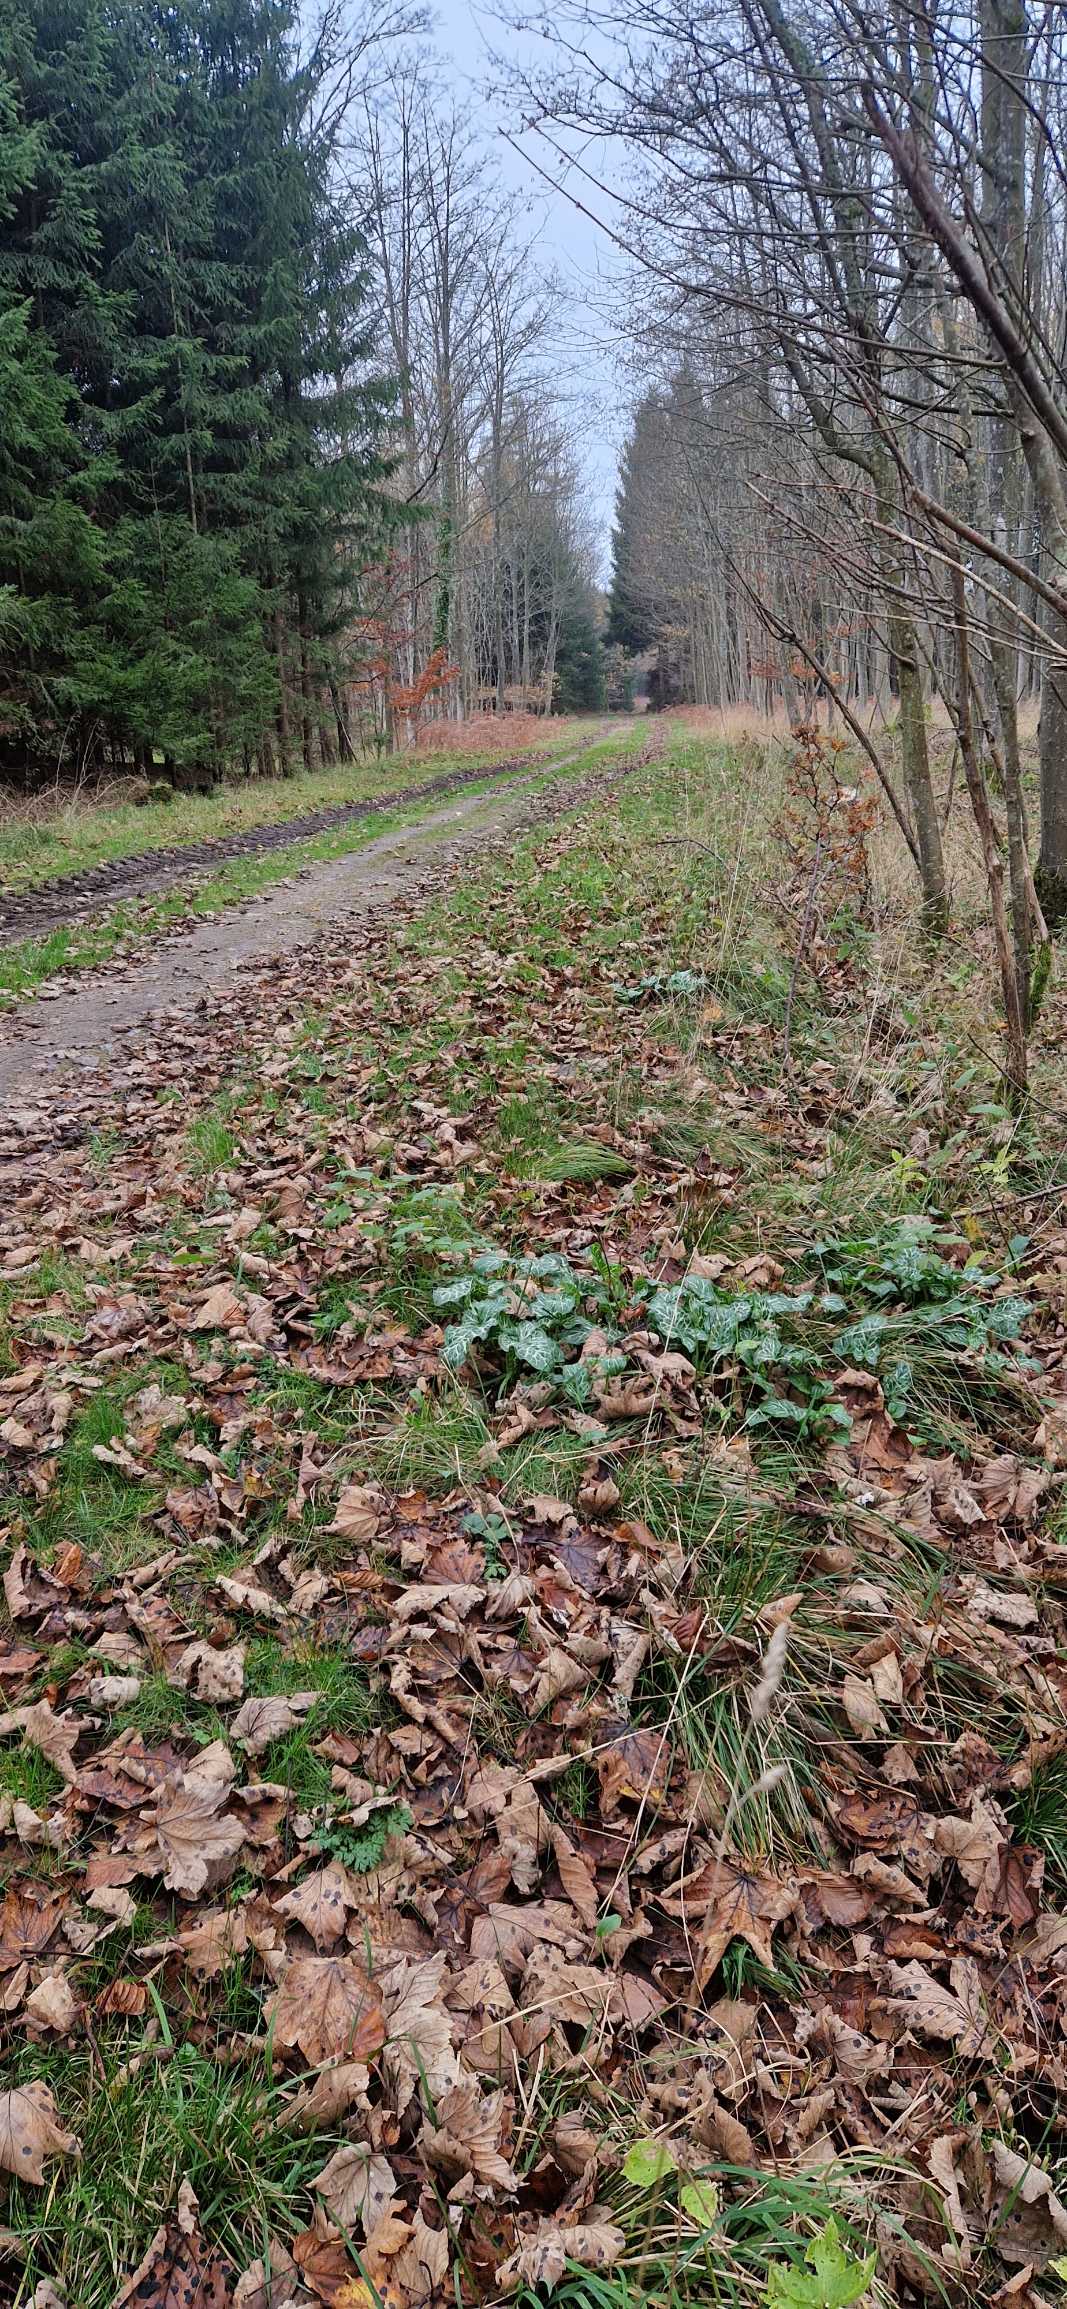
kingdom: Plantae
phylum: Tracheophyta
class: Liliopsida
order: Alismatales
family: Araceae
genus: Arum
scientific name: Arum italicum
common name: Italiensk arum
